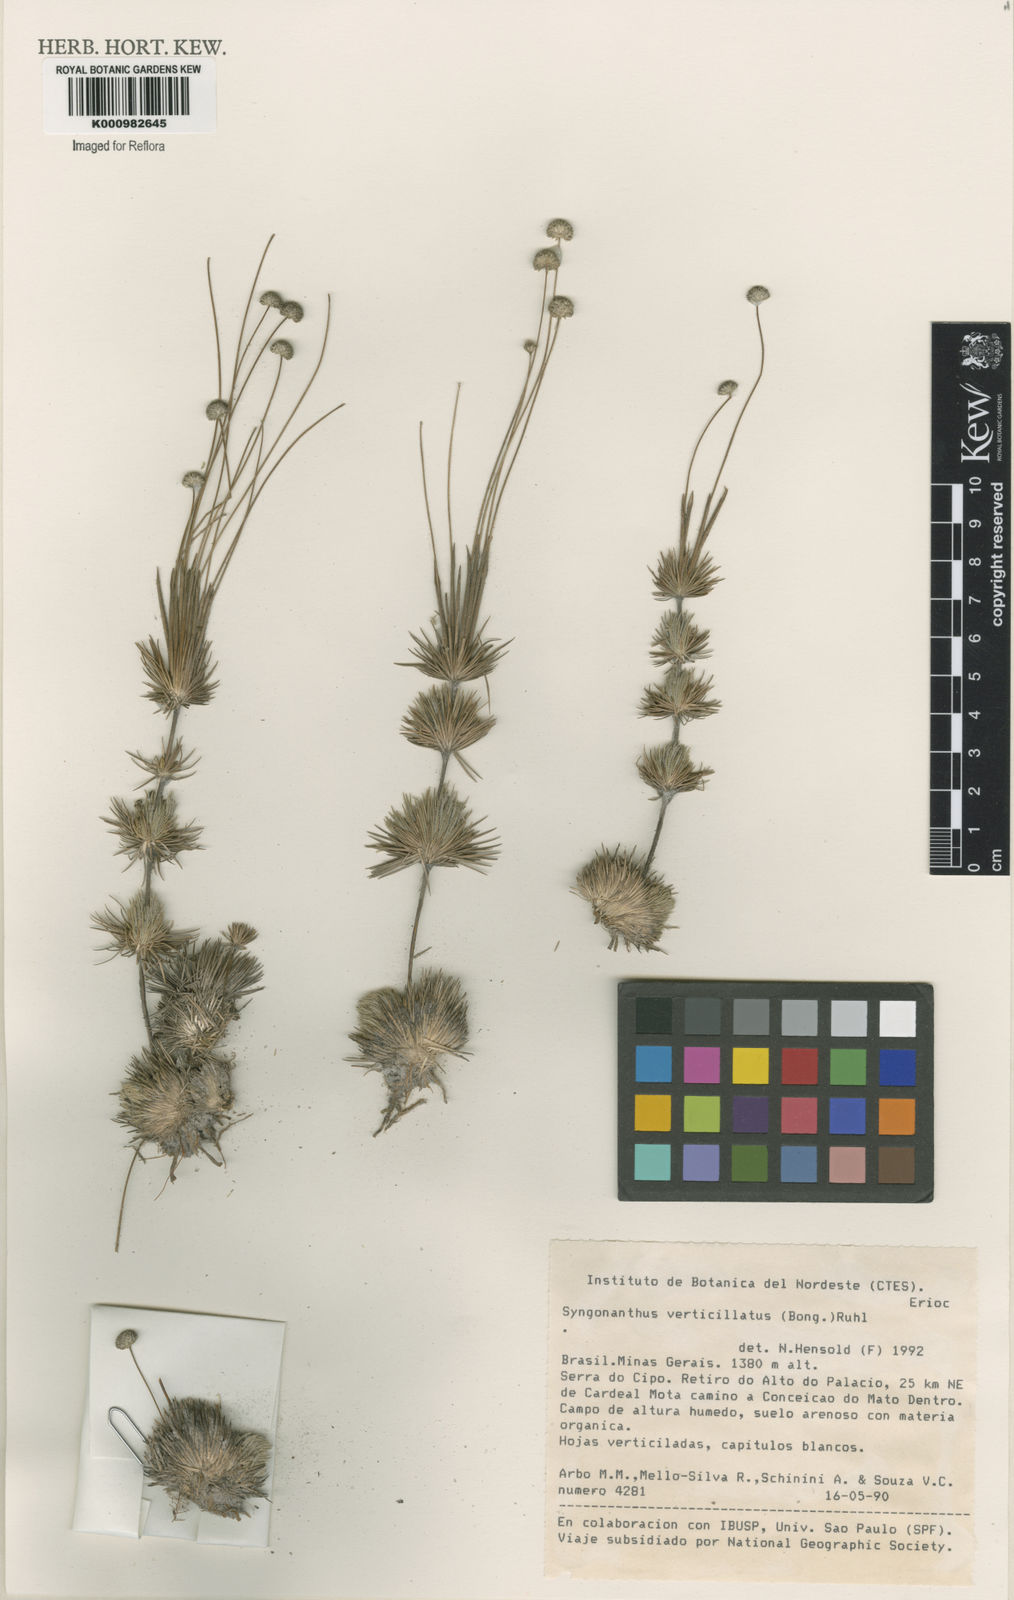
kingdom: Plantae
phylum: Tracheophyta
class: Liliopsida
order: Poales
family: Eriocaulaceae
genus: Syngonanthus
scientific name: Syngonanthus verticillatus
